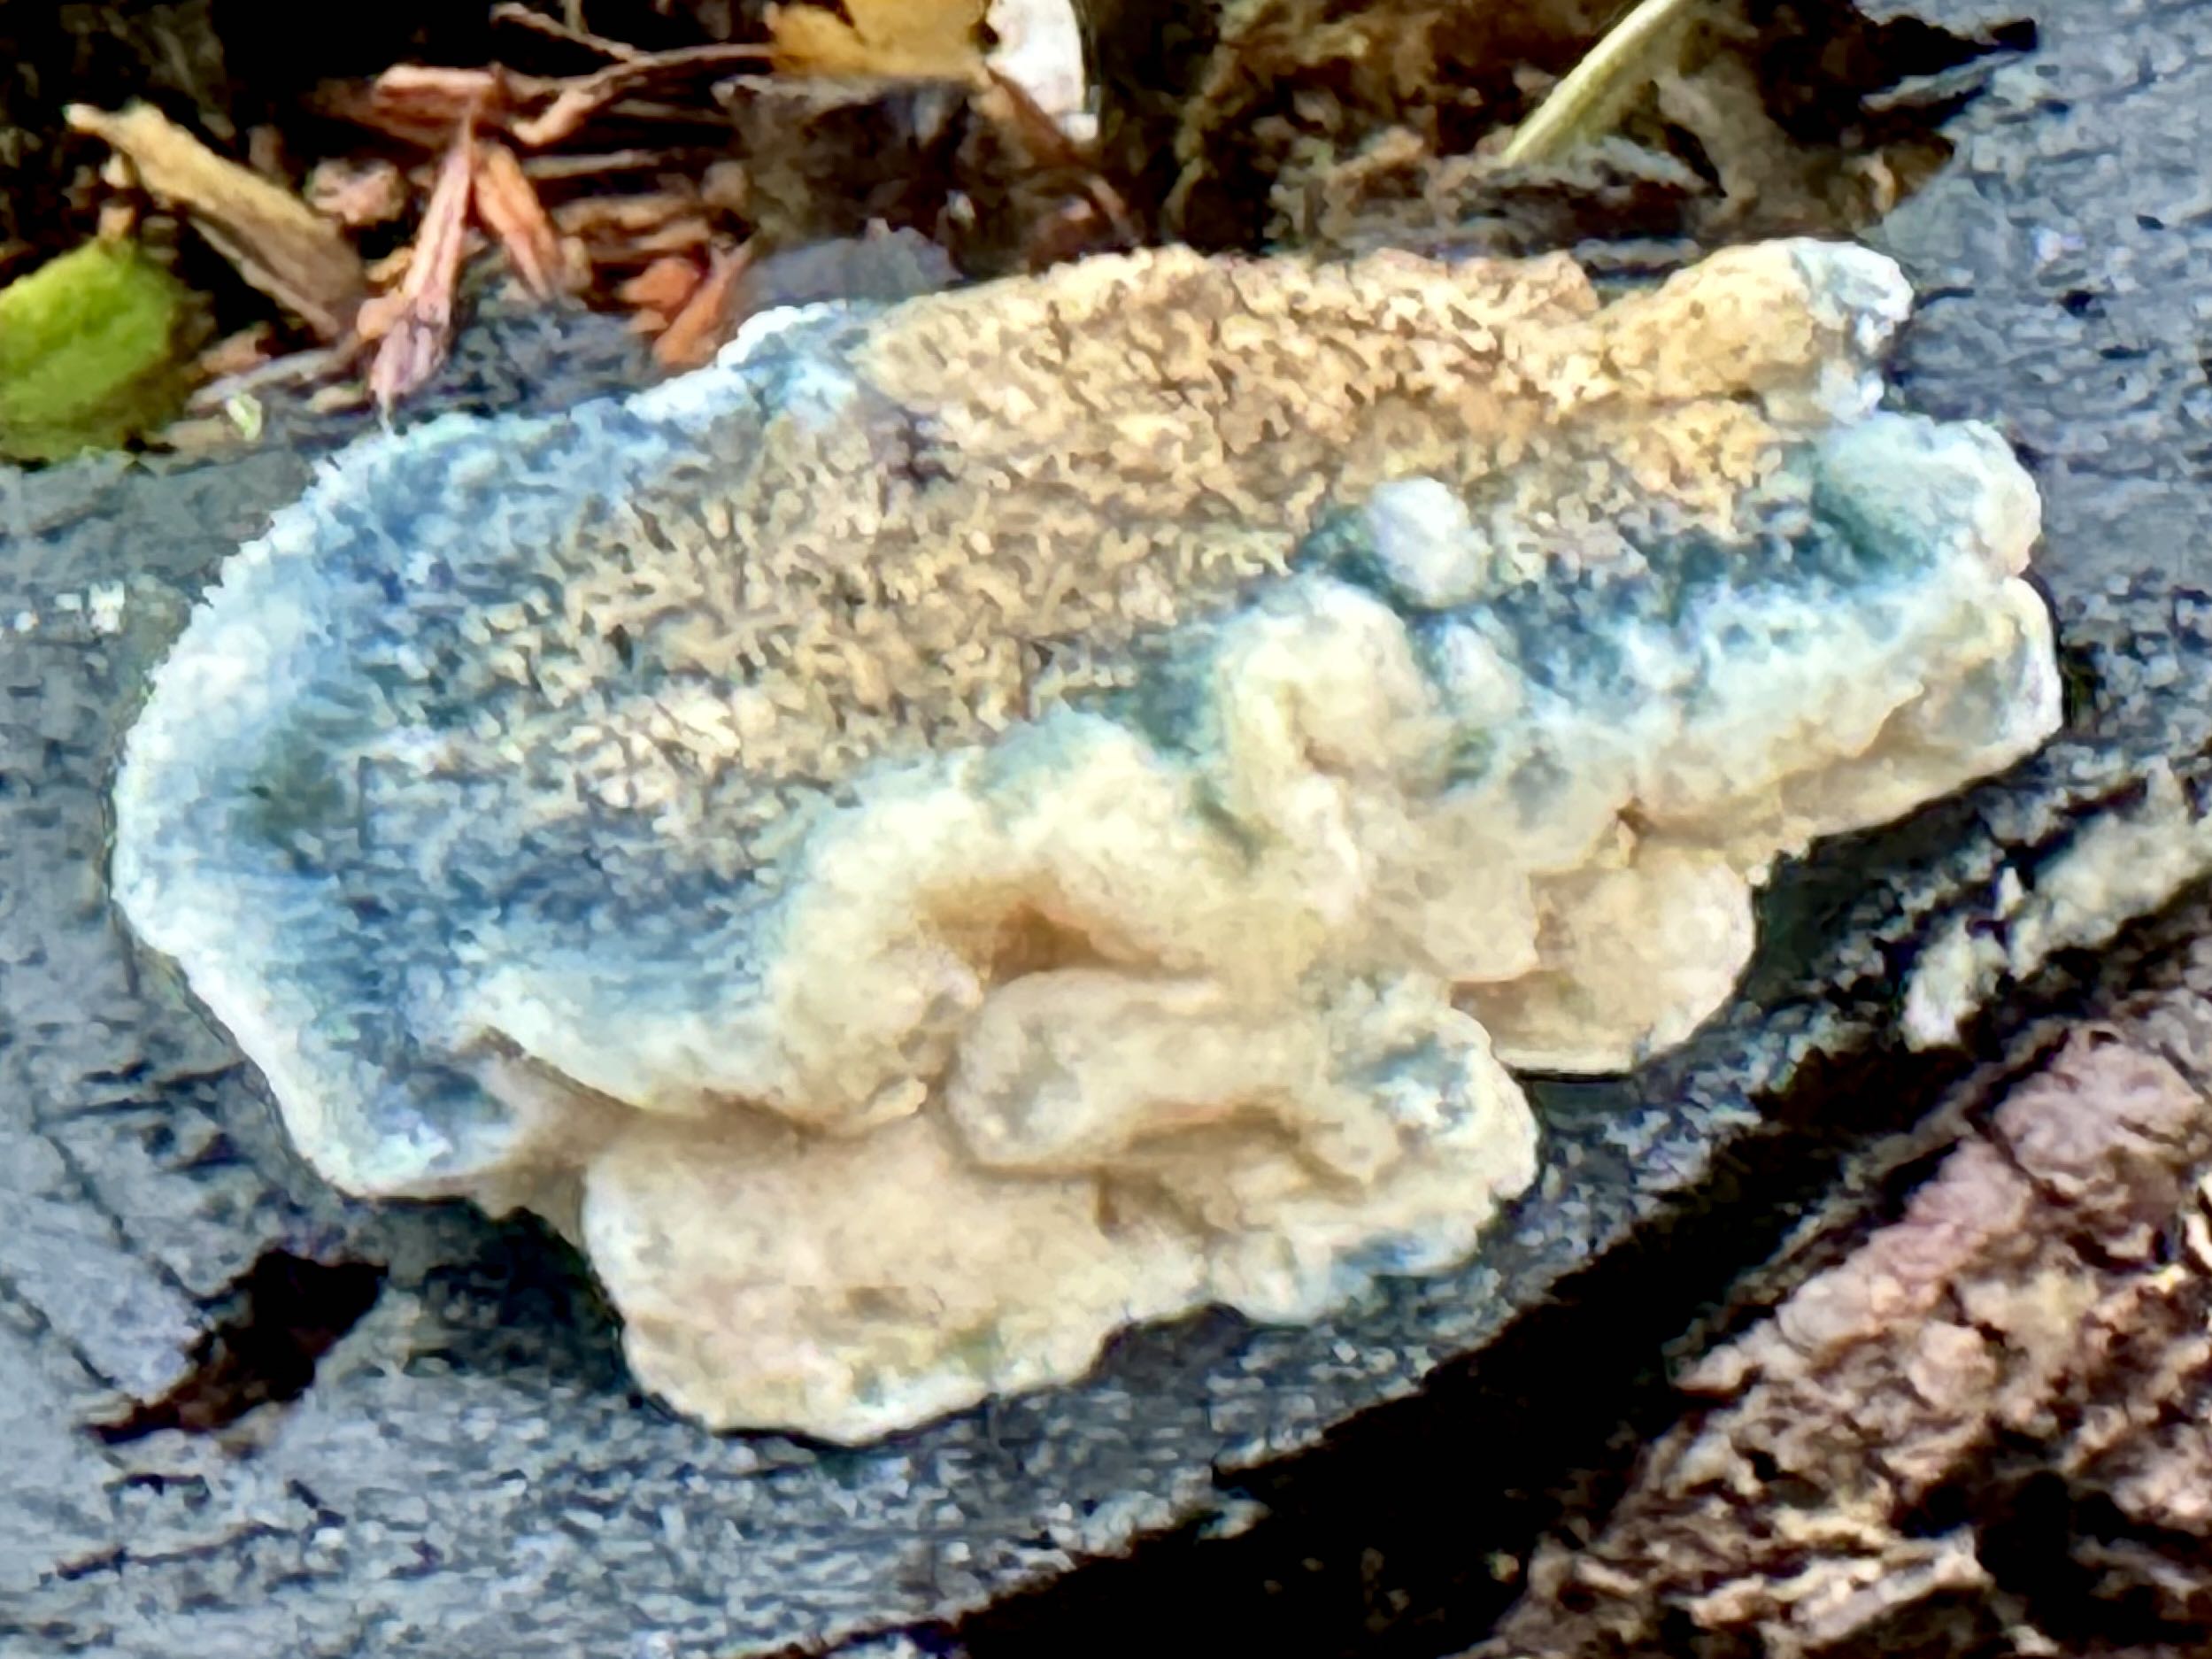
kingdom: Fungi
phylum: Basidiomycota
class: Agaricomycetes
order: Polyporales
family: Polyporaceae
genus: Cyanosporus
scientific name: Cyanosporus caesius
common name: blålig kødporesvamp
